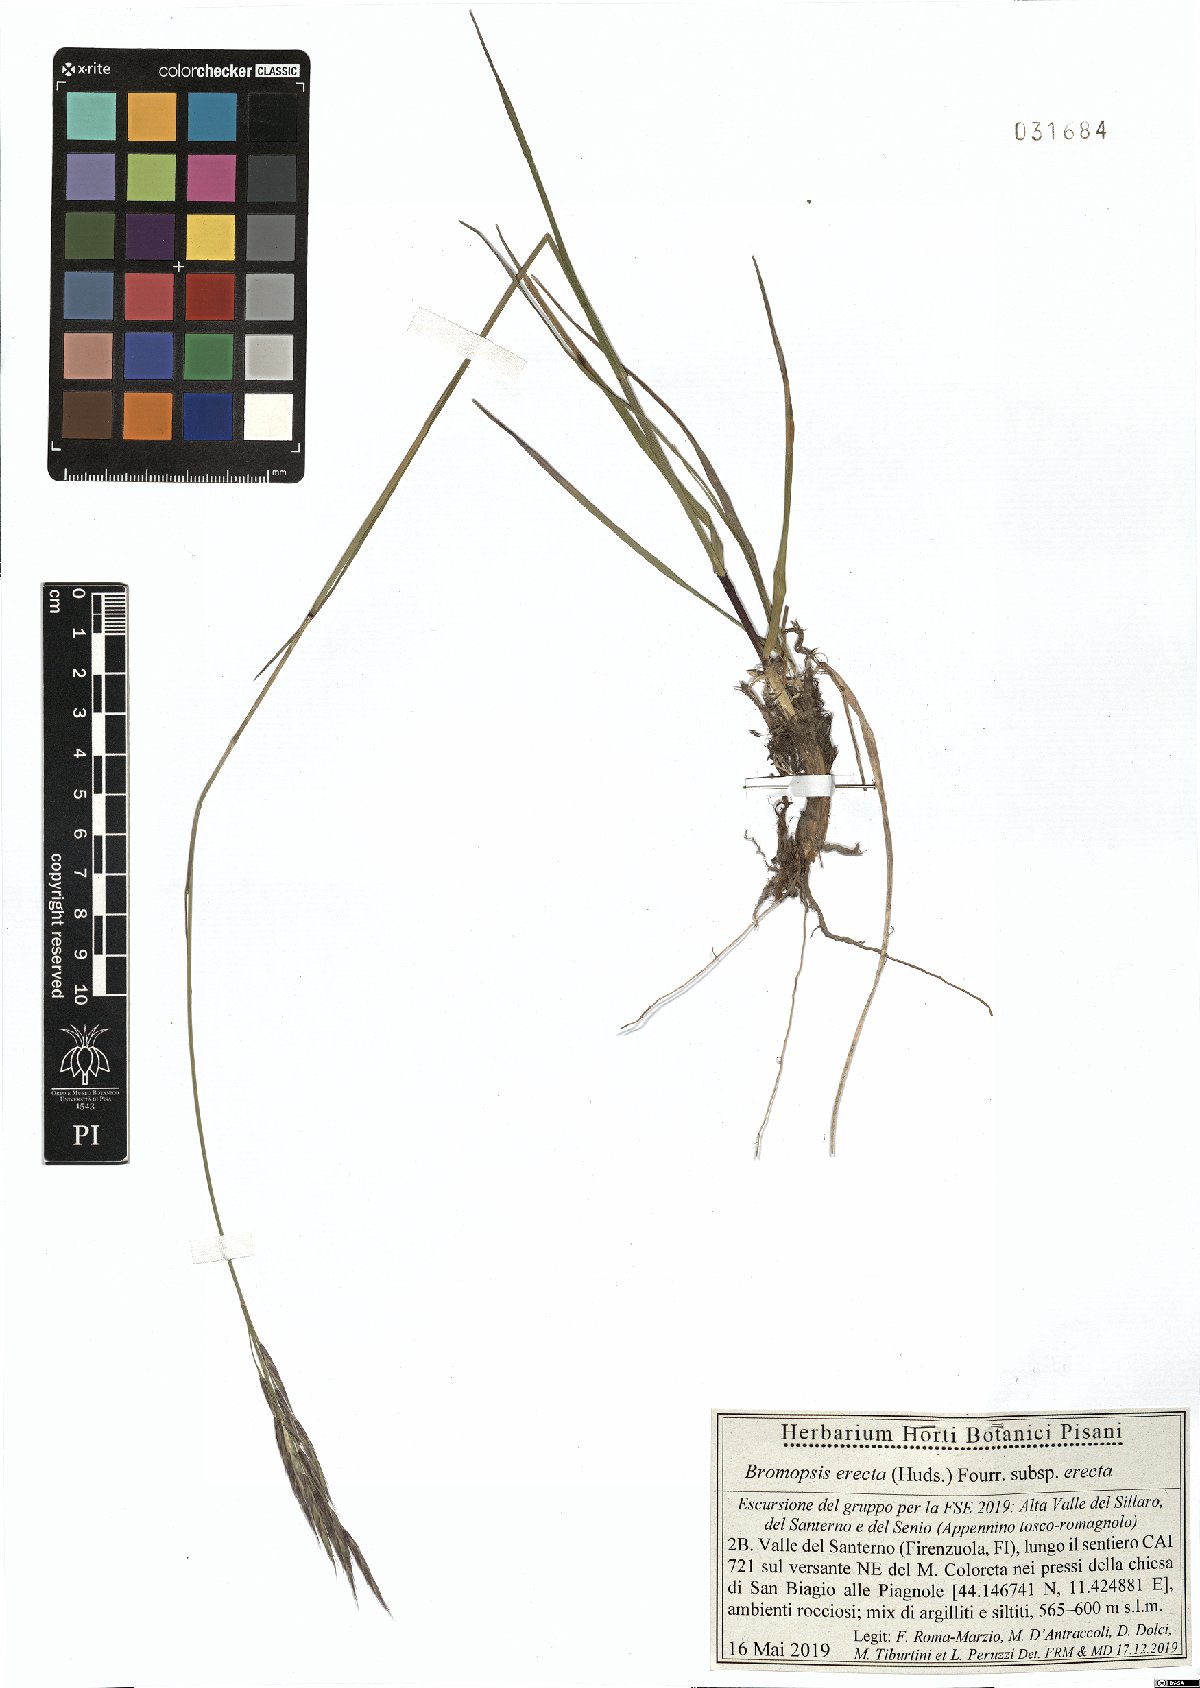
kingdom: Plantae
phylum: Tracheophyta
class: Liliopsida
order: Poales
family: Poaceae
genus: Bromus
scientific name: Bromus erectus
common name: Erect brome
